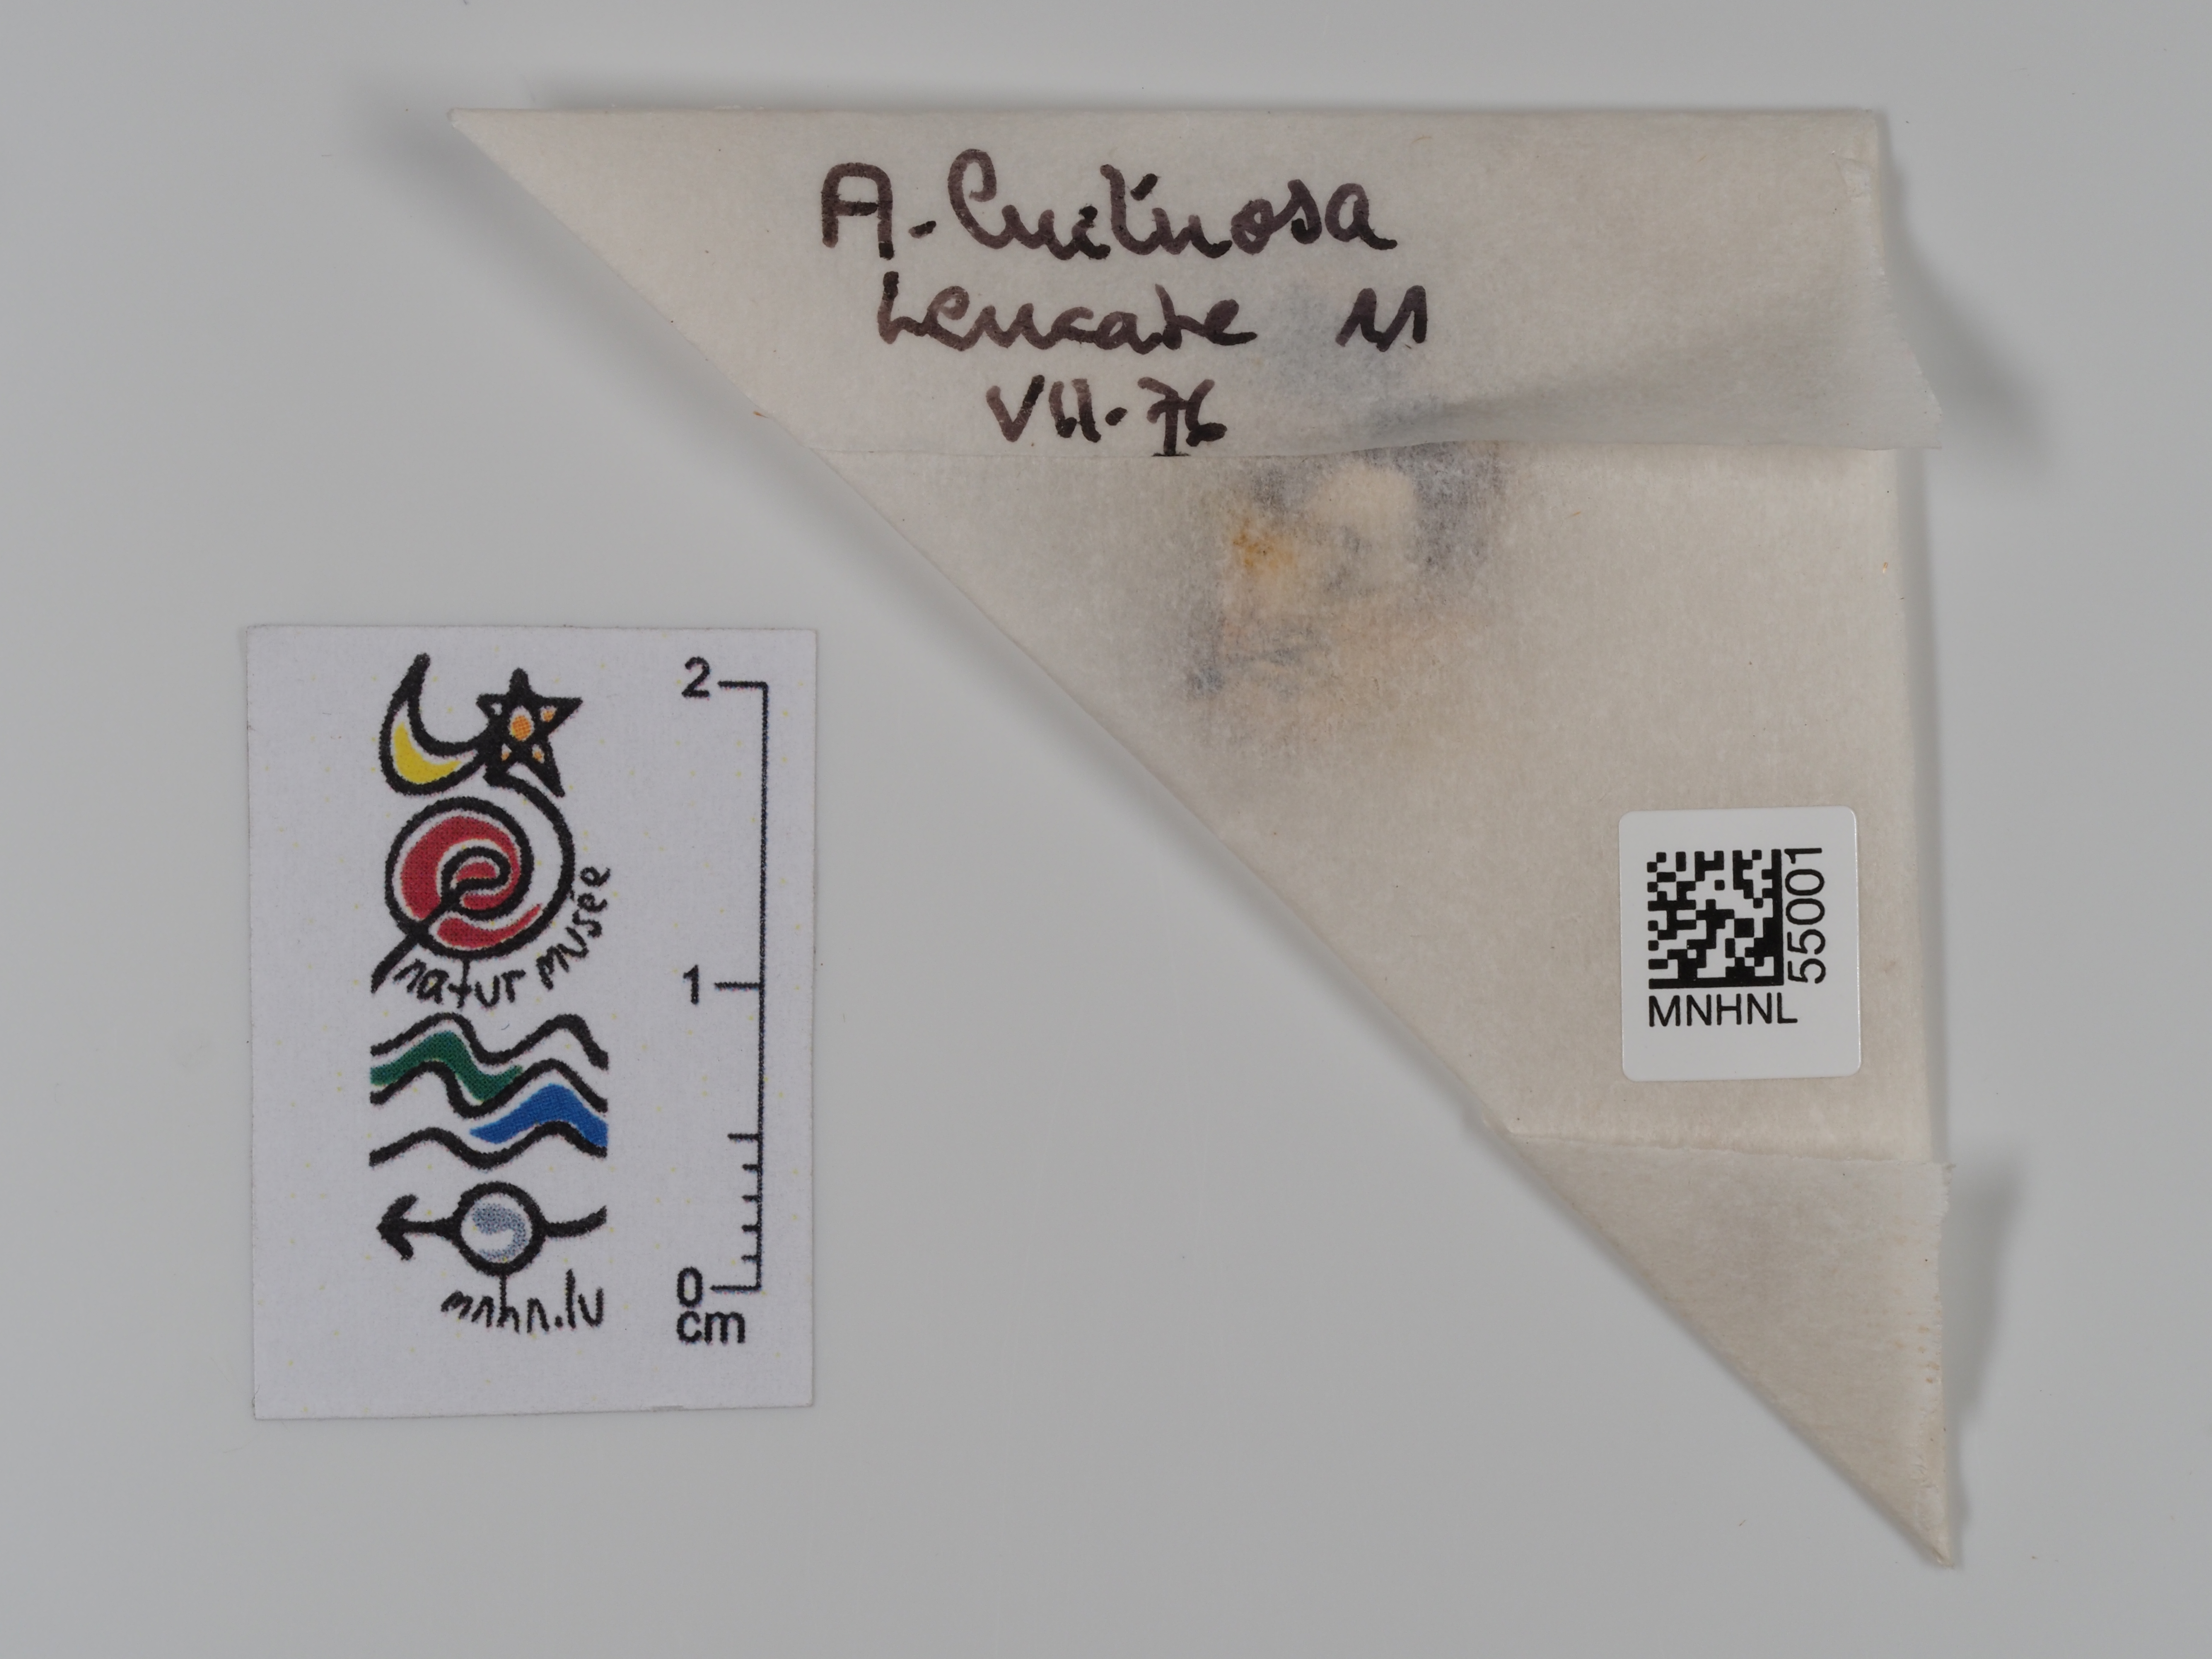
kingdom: Animalia
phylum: Arthropoda
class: Insecta
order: Lepidoptera
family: Erebidae
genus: Tyta
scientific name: Tyta luctuosa
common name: Four-spotted
